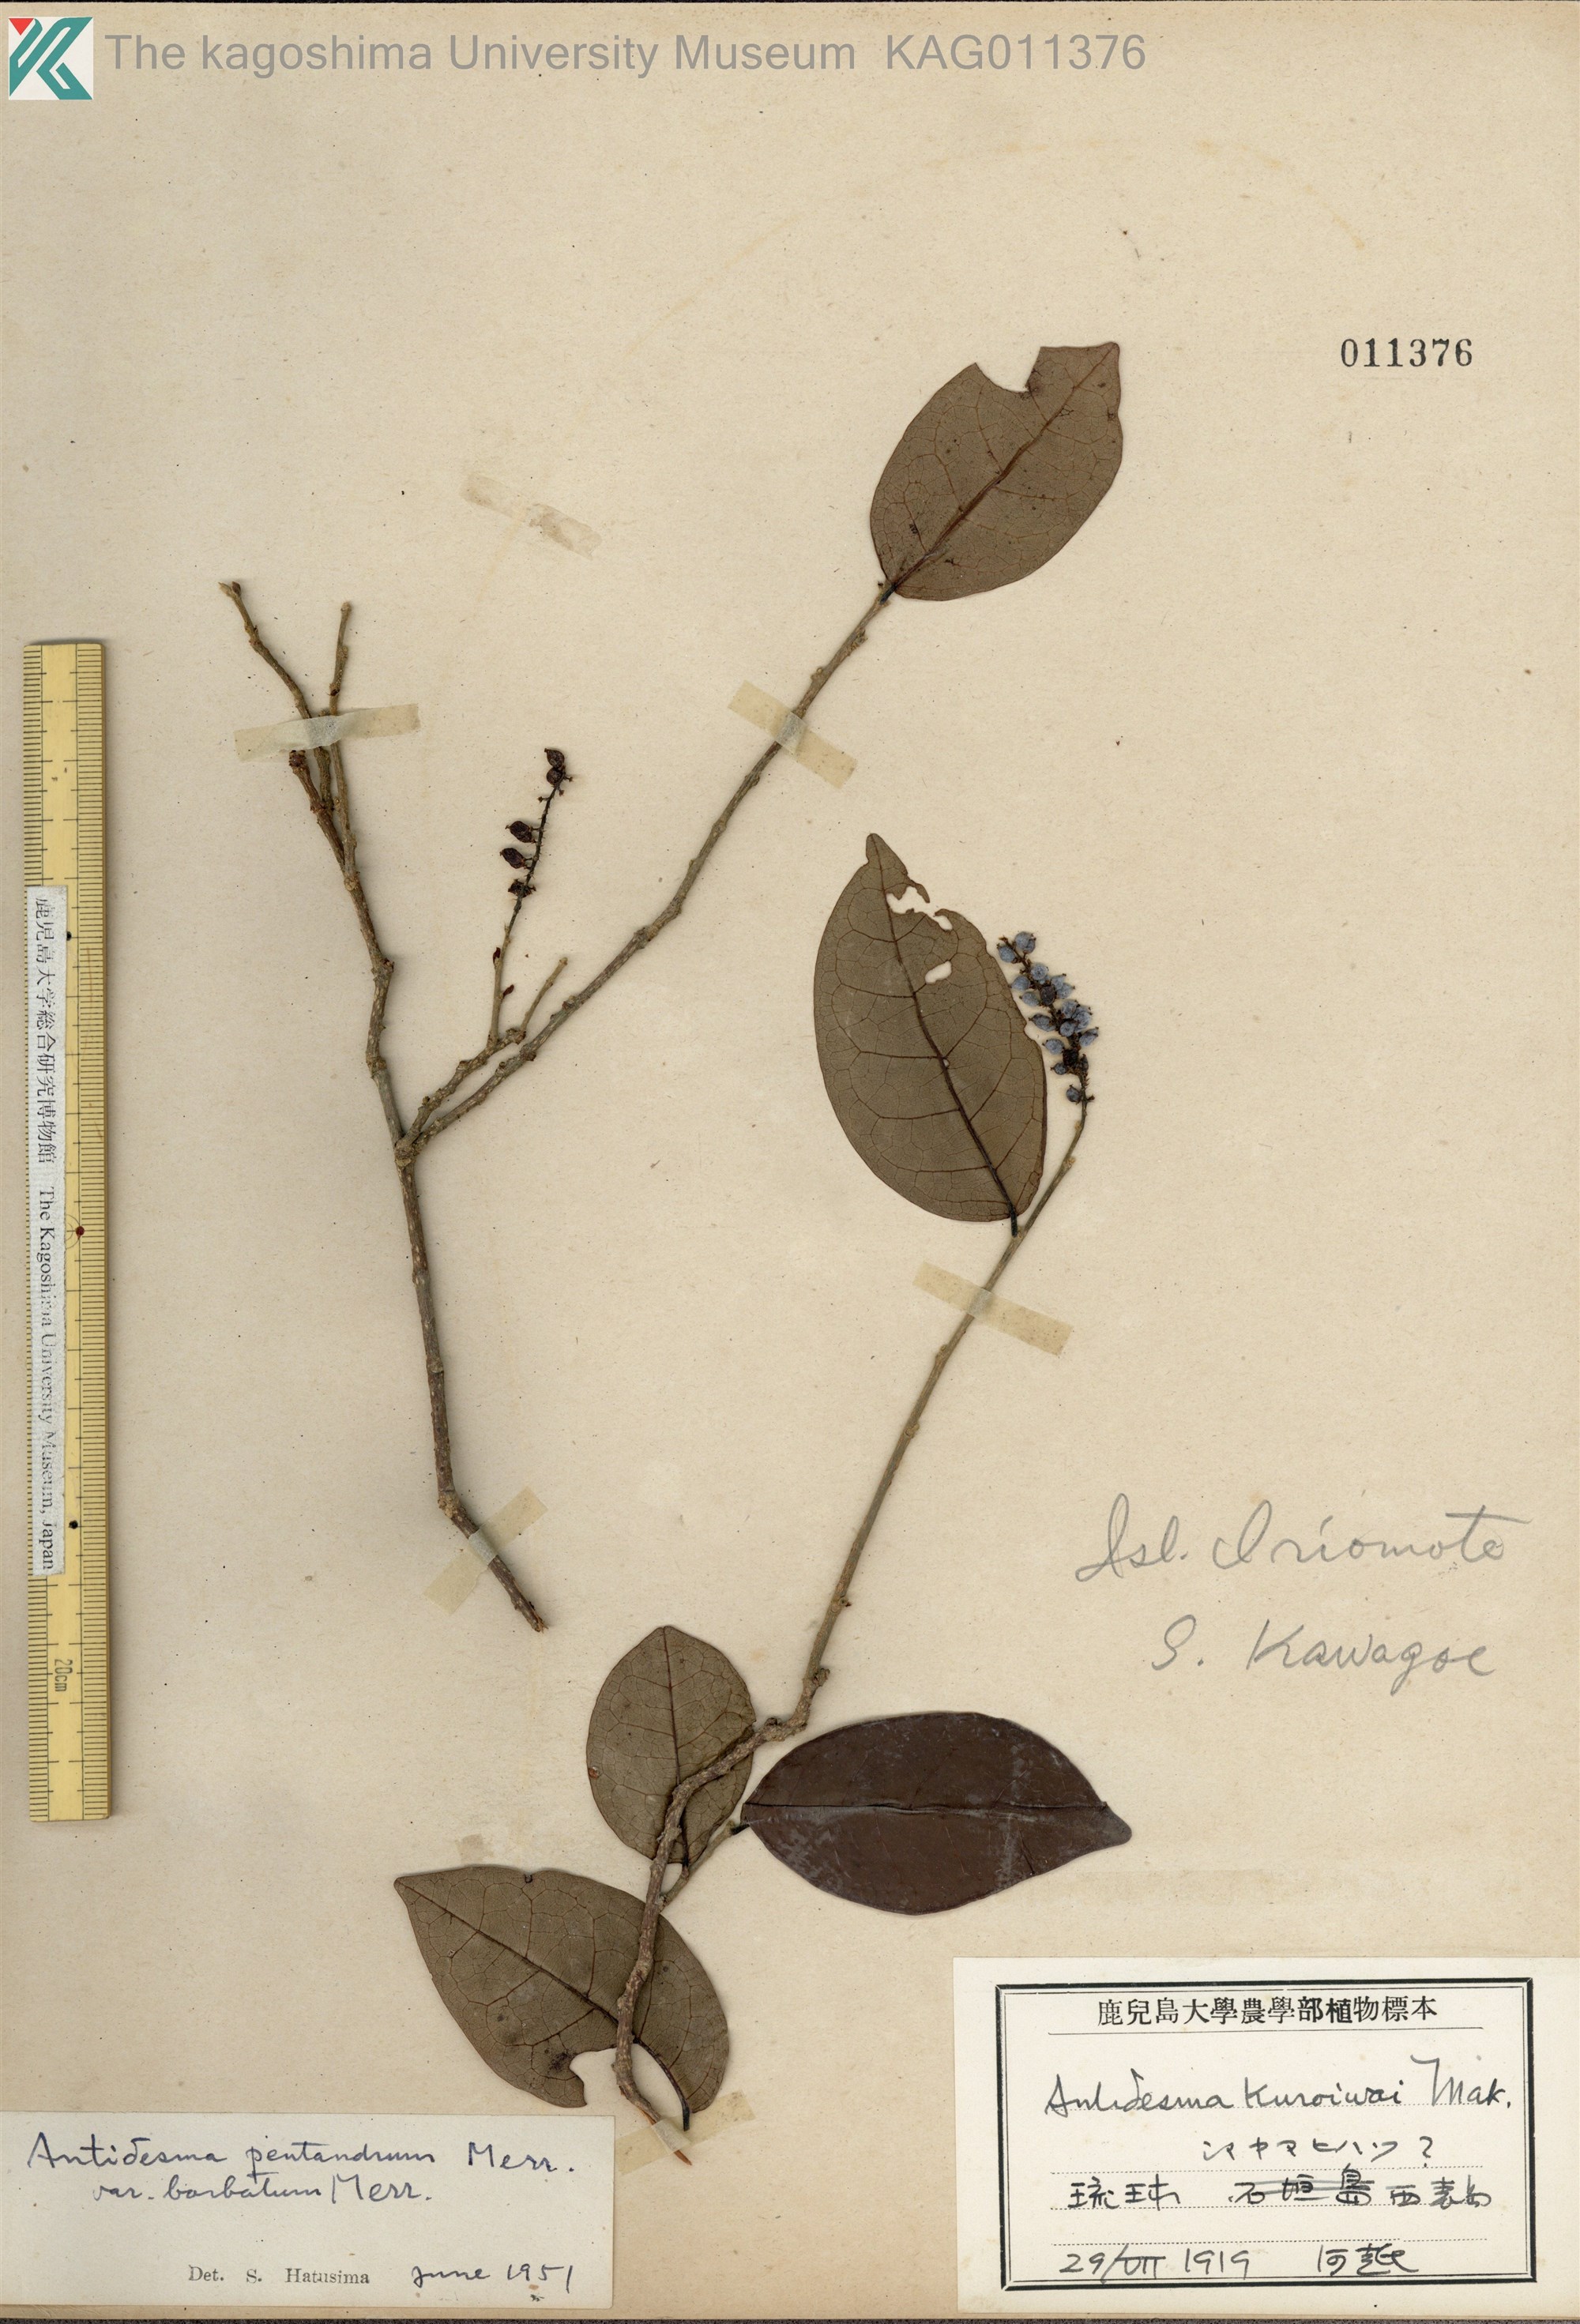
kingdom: Plantae
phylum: Tracheophyta
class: Magnoliopsida
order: Malpighiales
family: Phyllanthaceae
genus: Antidesma
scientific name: Antidesma montanum
